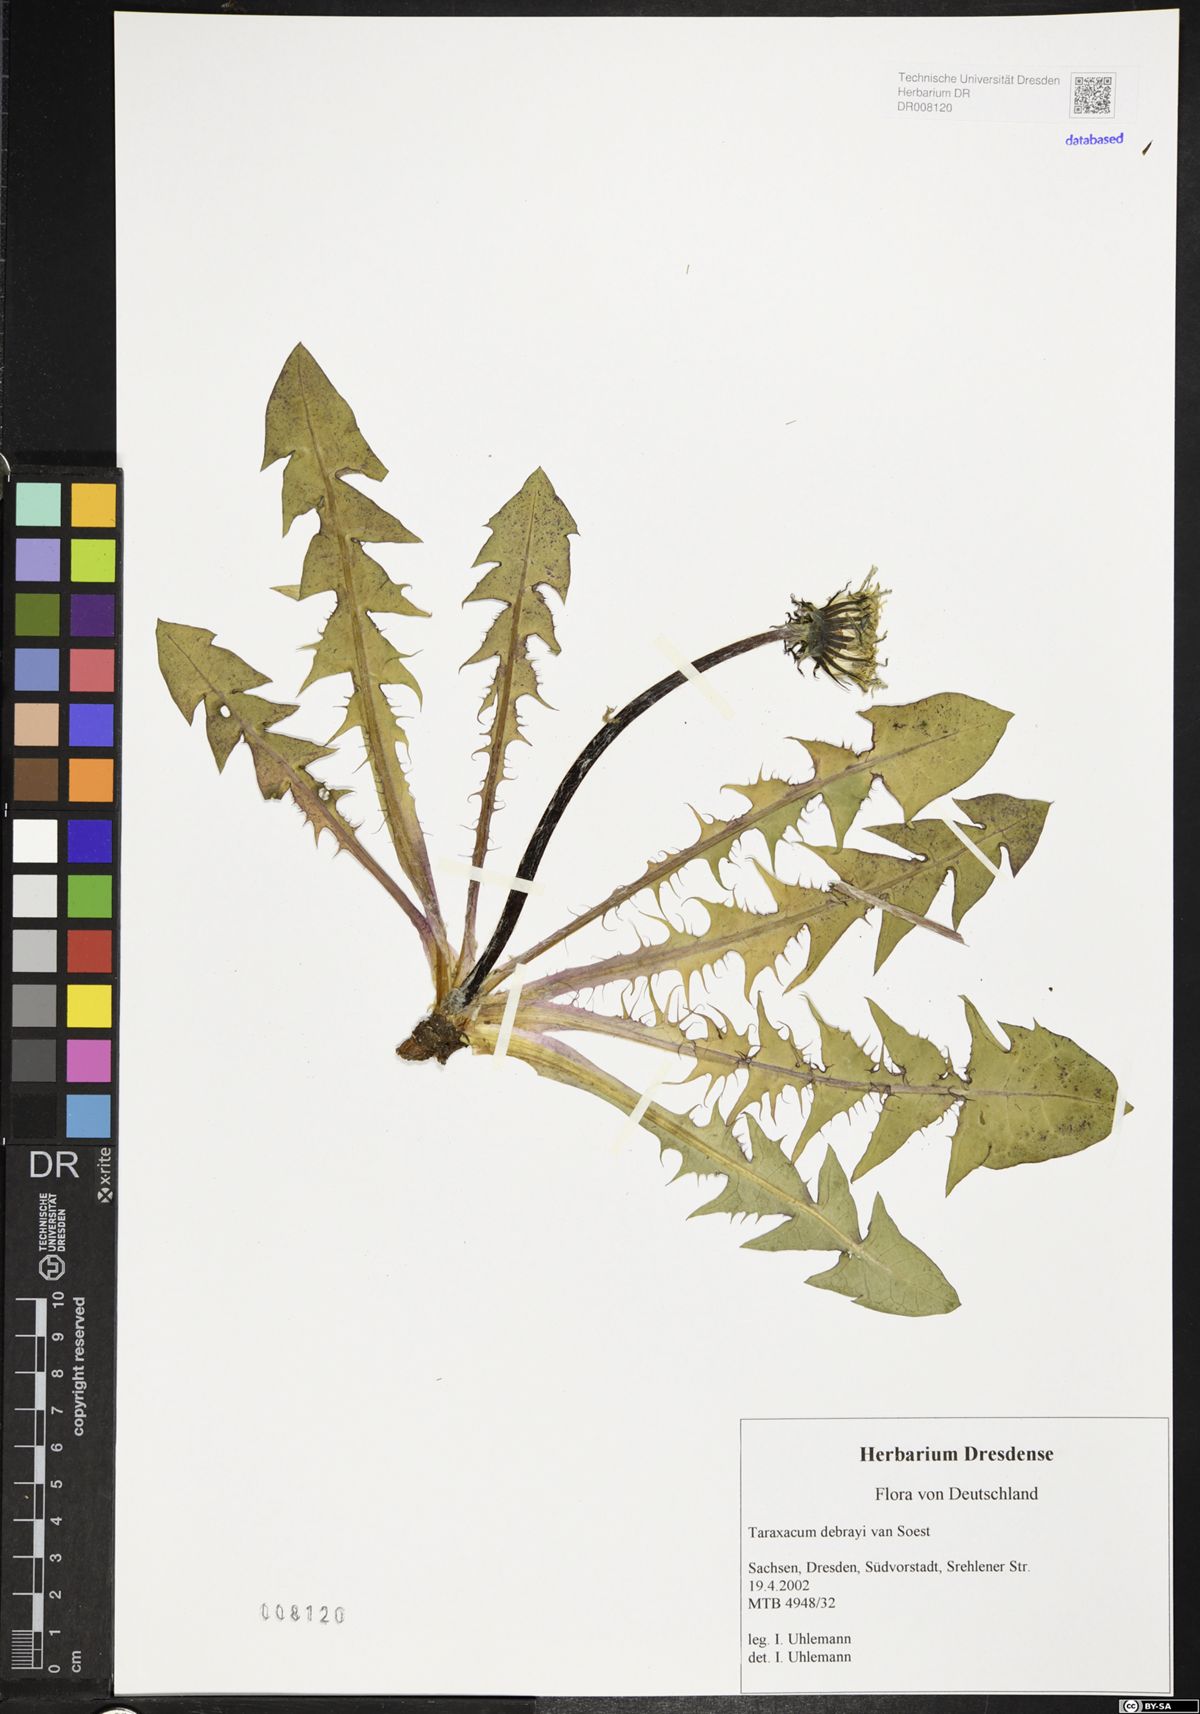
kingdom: Plantae
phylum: Tracheophyta
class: Magnoliopsida
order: Asterales
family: Asteraceae
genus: Taraxacum
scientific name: Taraxacum debrayi
